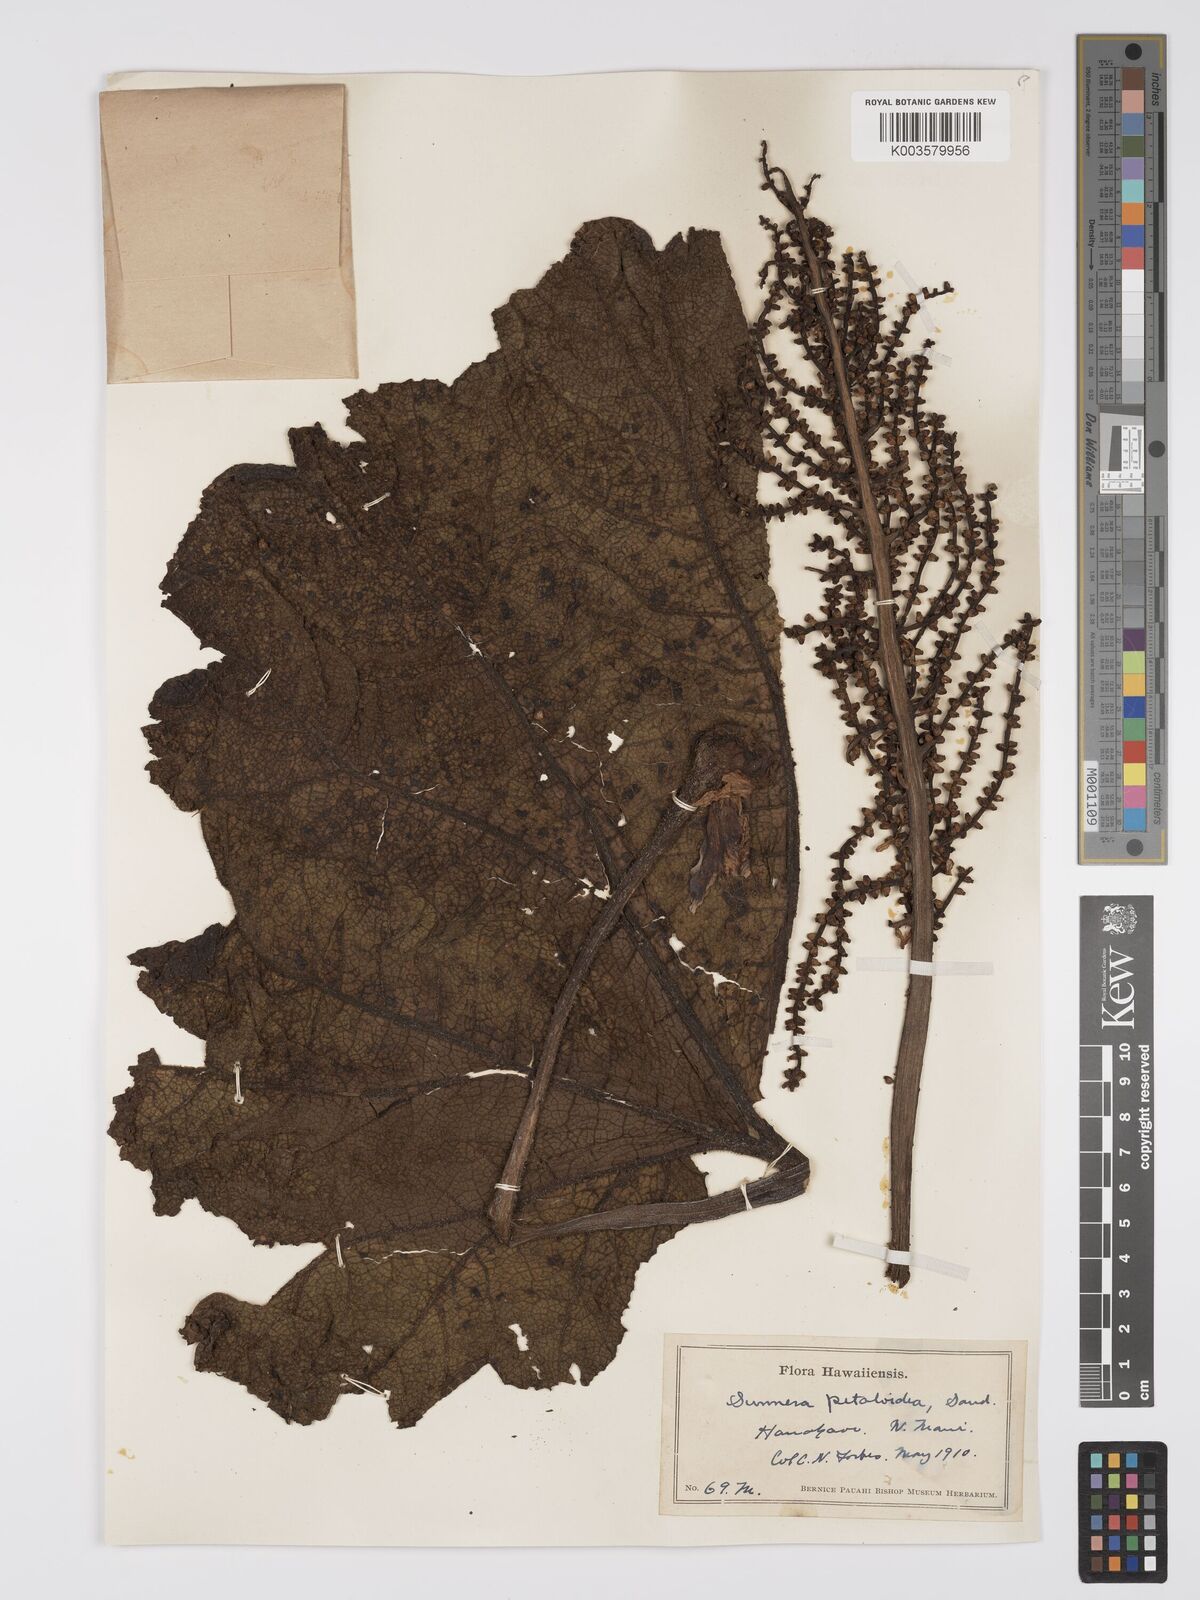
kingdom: Plantae
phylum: Tracheophyta
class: Magnoliopsida
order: Gunnerales
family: Gunneraceae
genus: Gunnera
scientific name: Gunnera petaloidea
